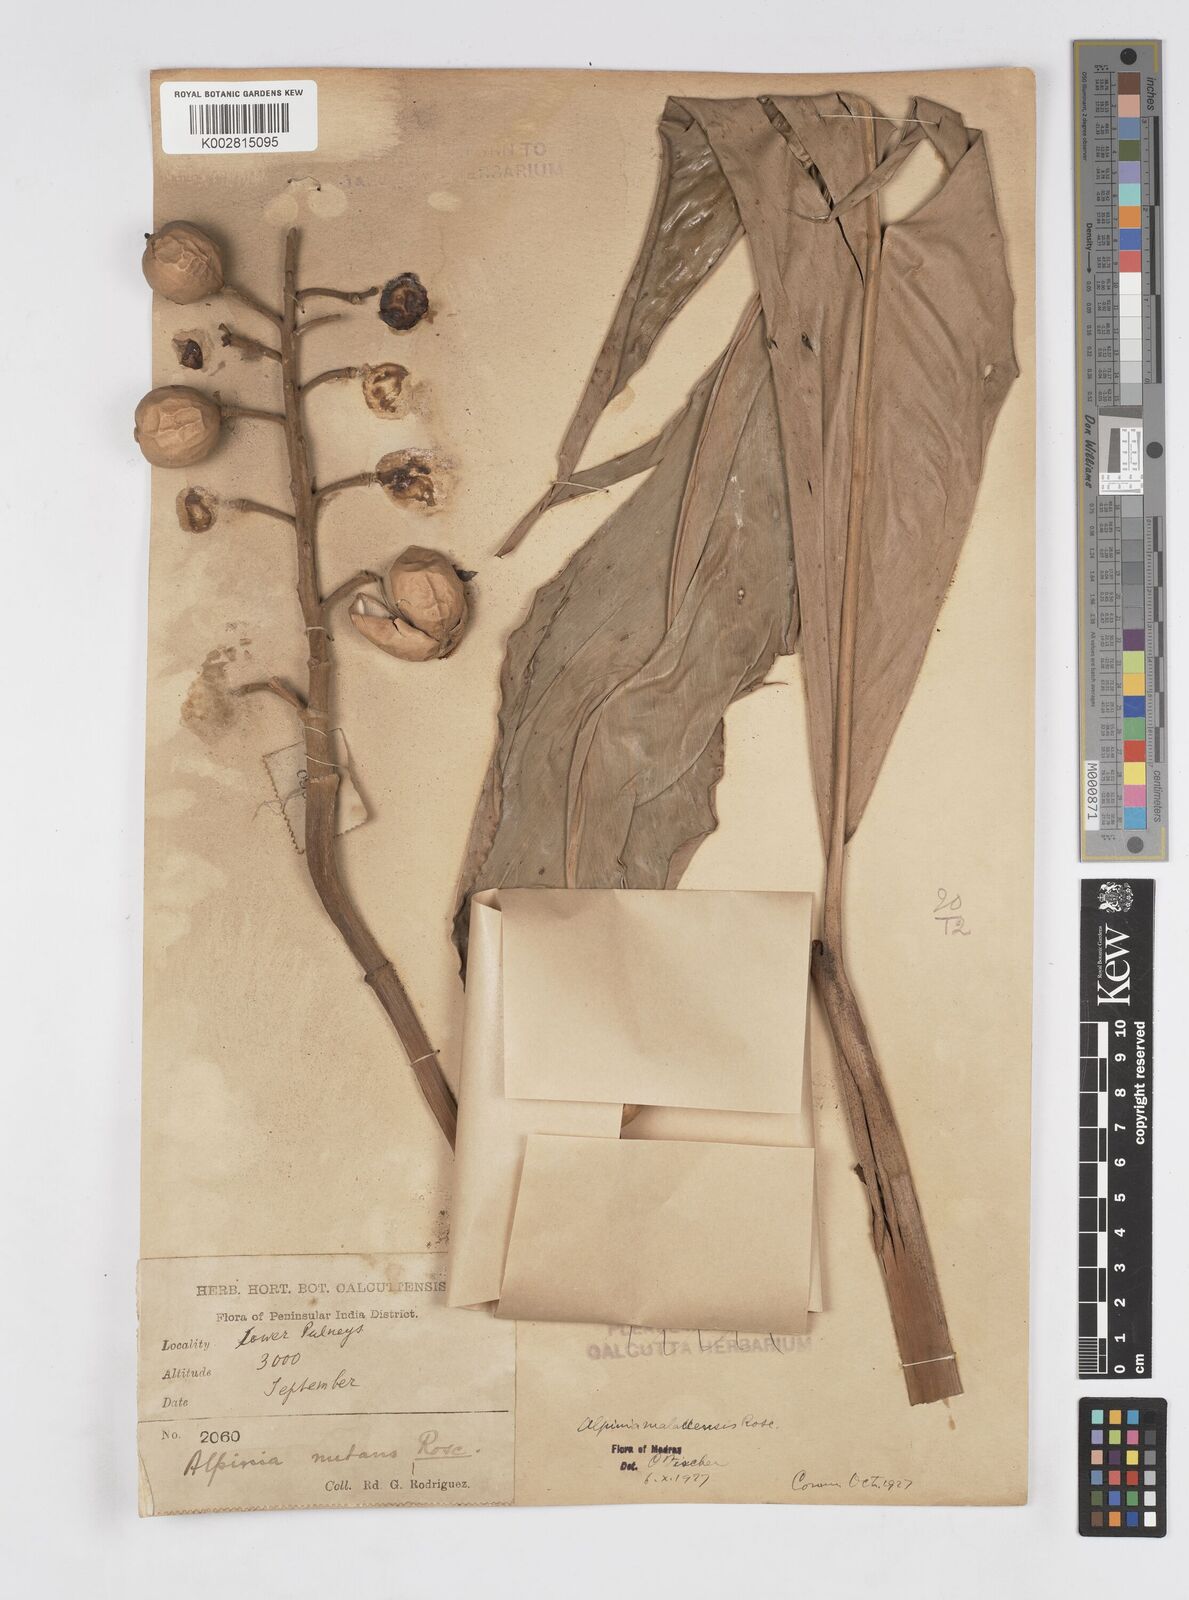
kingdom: Plantae
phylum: Tracheophyta
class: Liliopsida
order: Zingiberales
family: Zingiberaceae
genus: Alpinia
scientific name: Alpinia malaccensis
